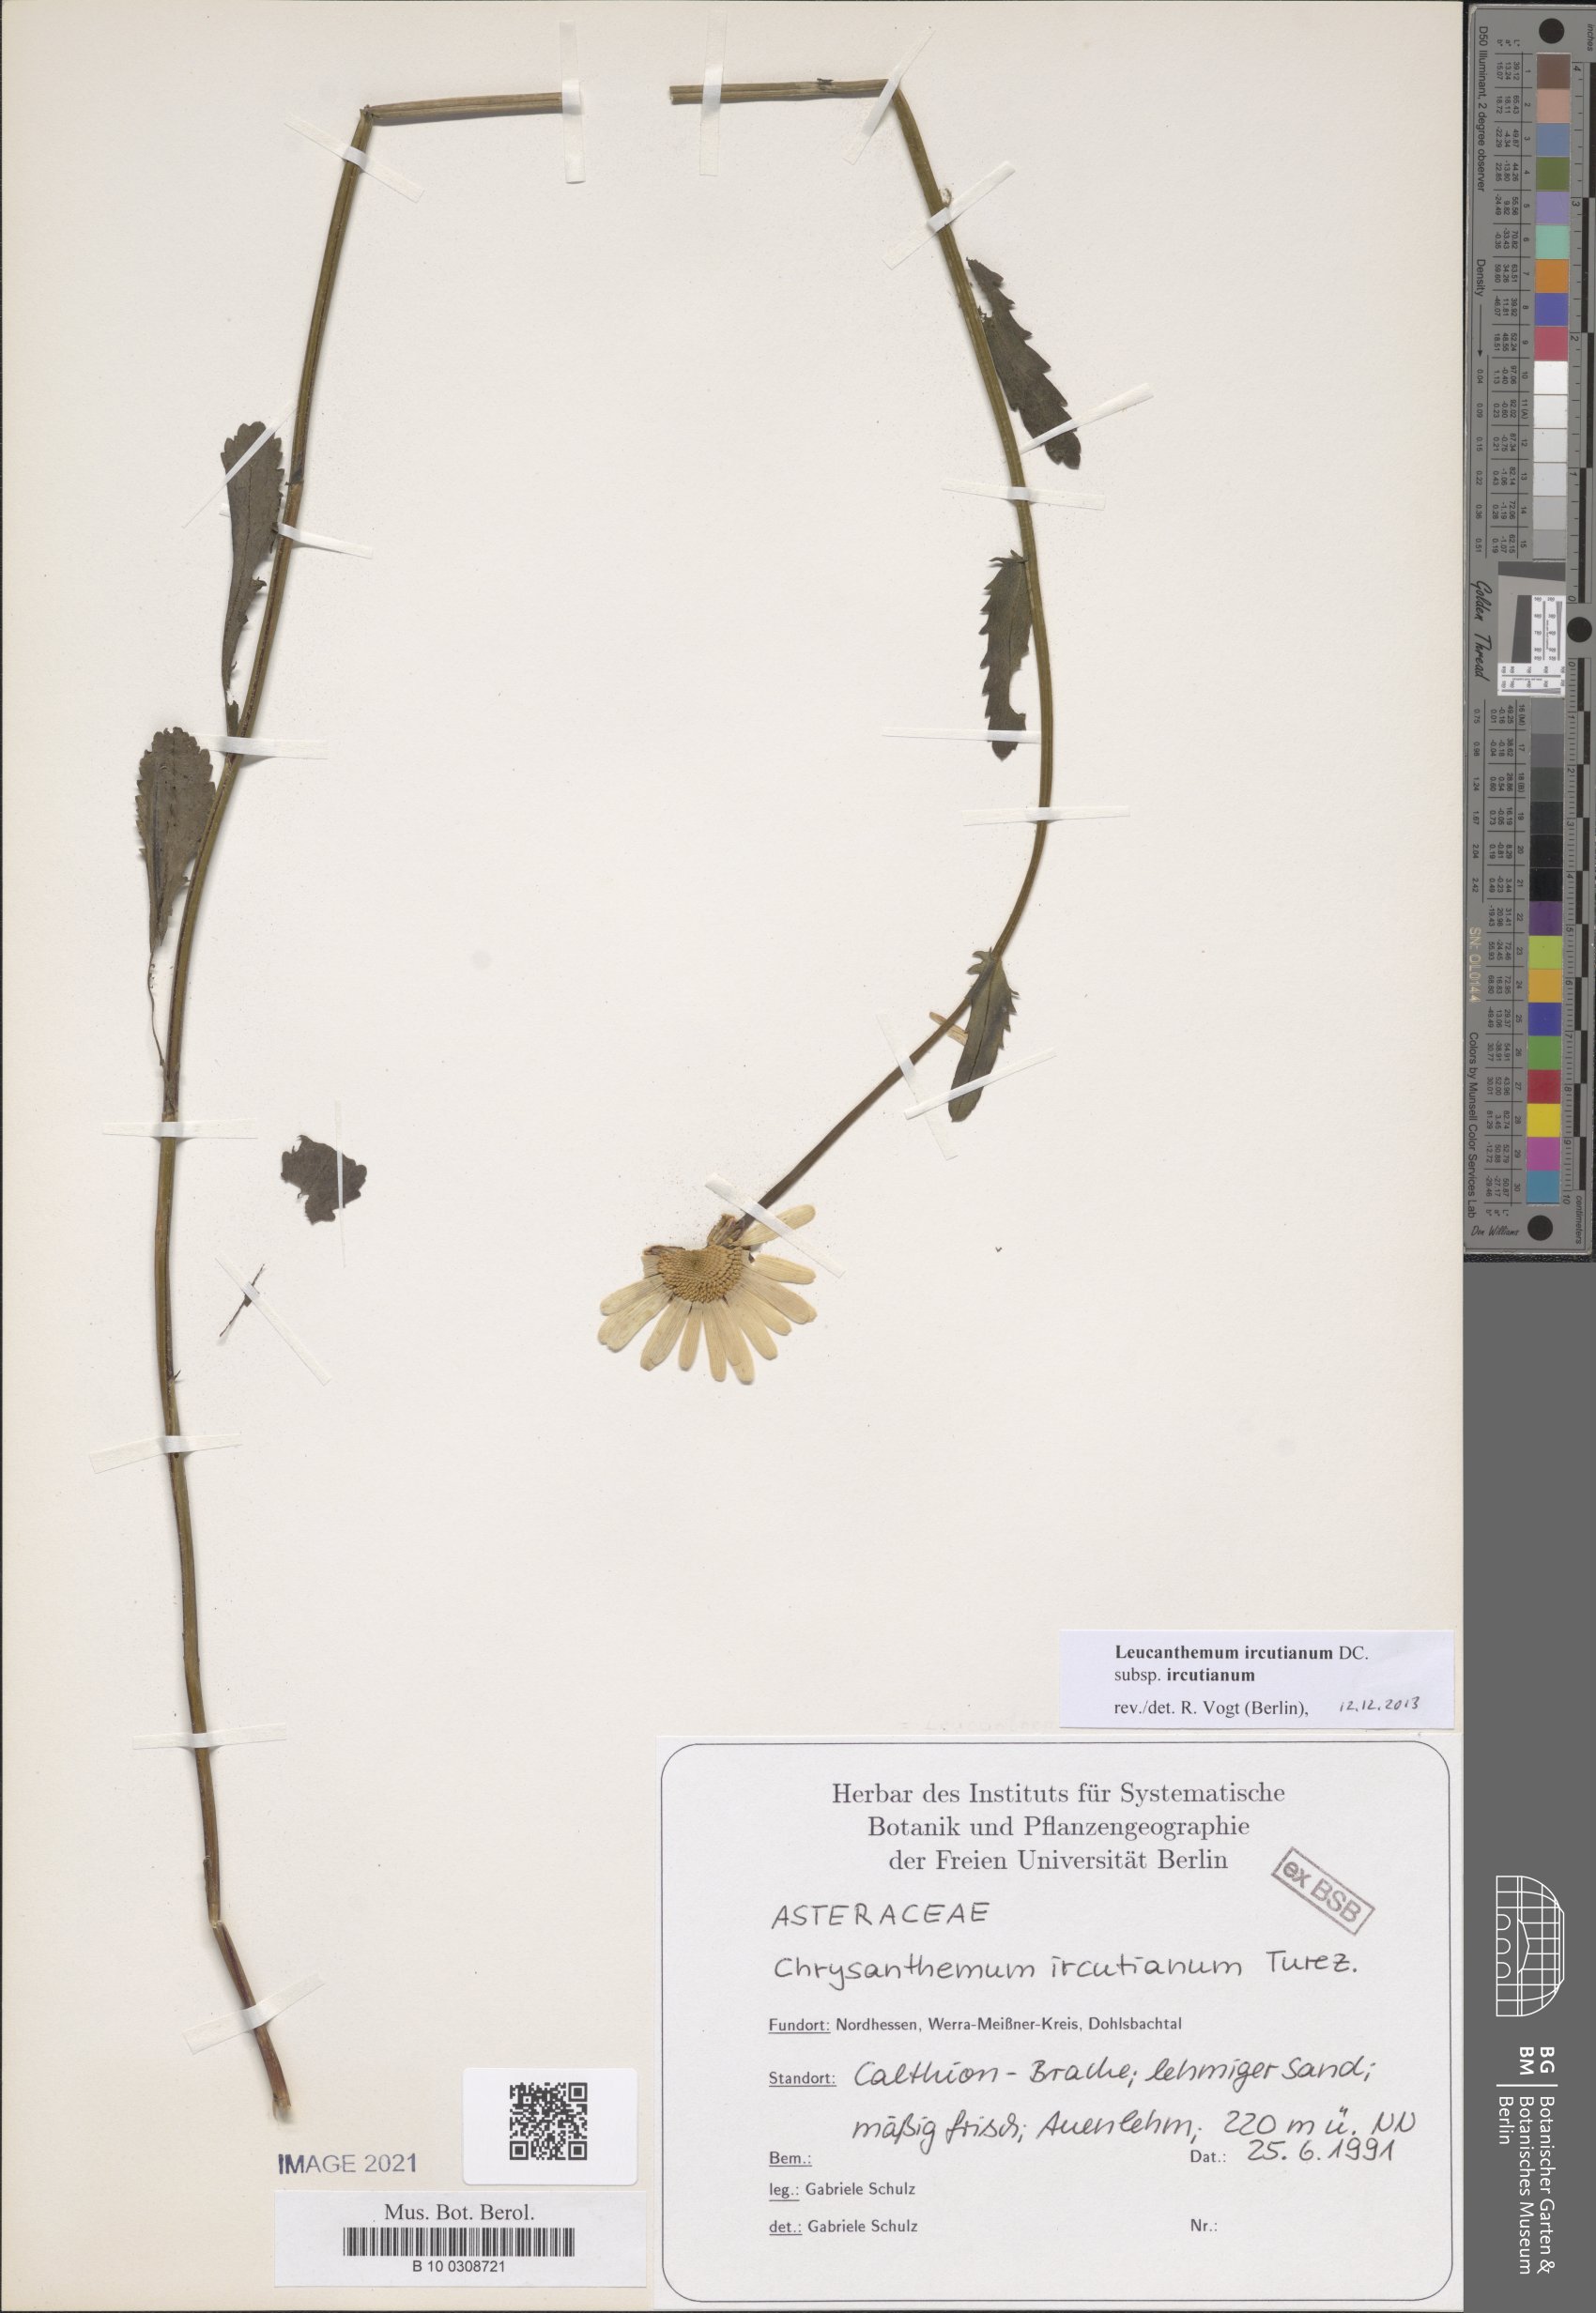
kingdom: Plantae
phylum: Tracheophyta
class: Magnoliopsida
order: Asterales
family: Asteraceae
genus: Leucanthemum
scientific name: Leucanthemum ircutianum
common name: Daisy
